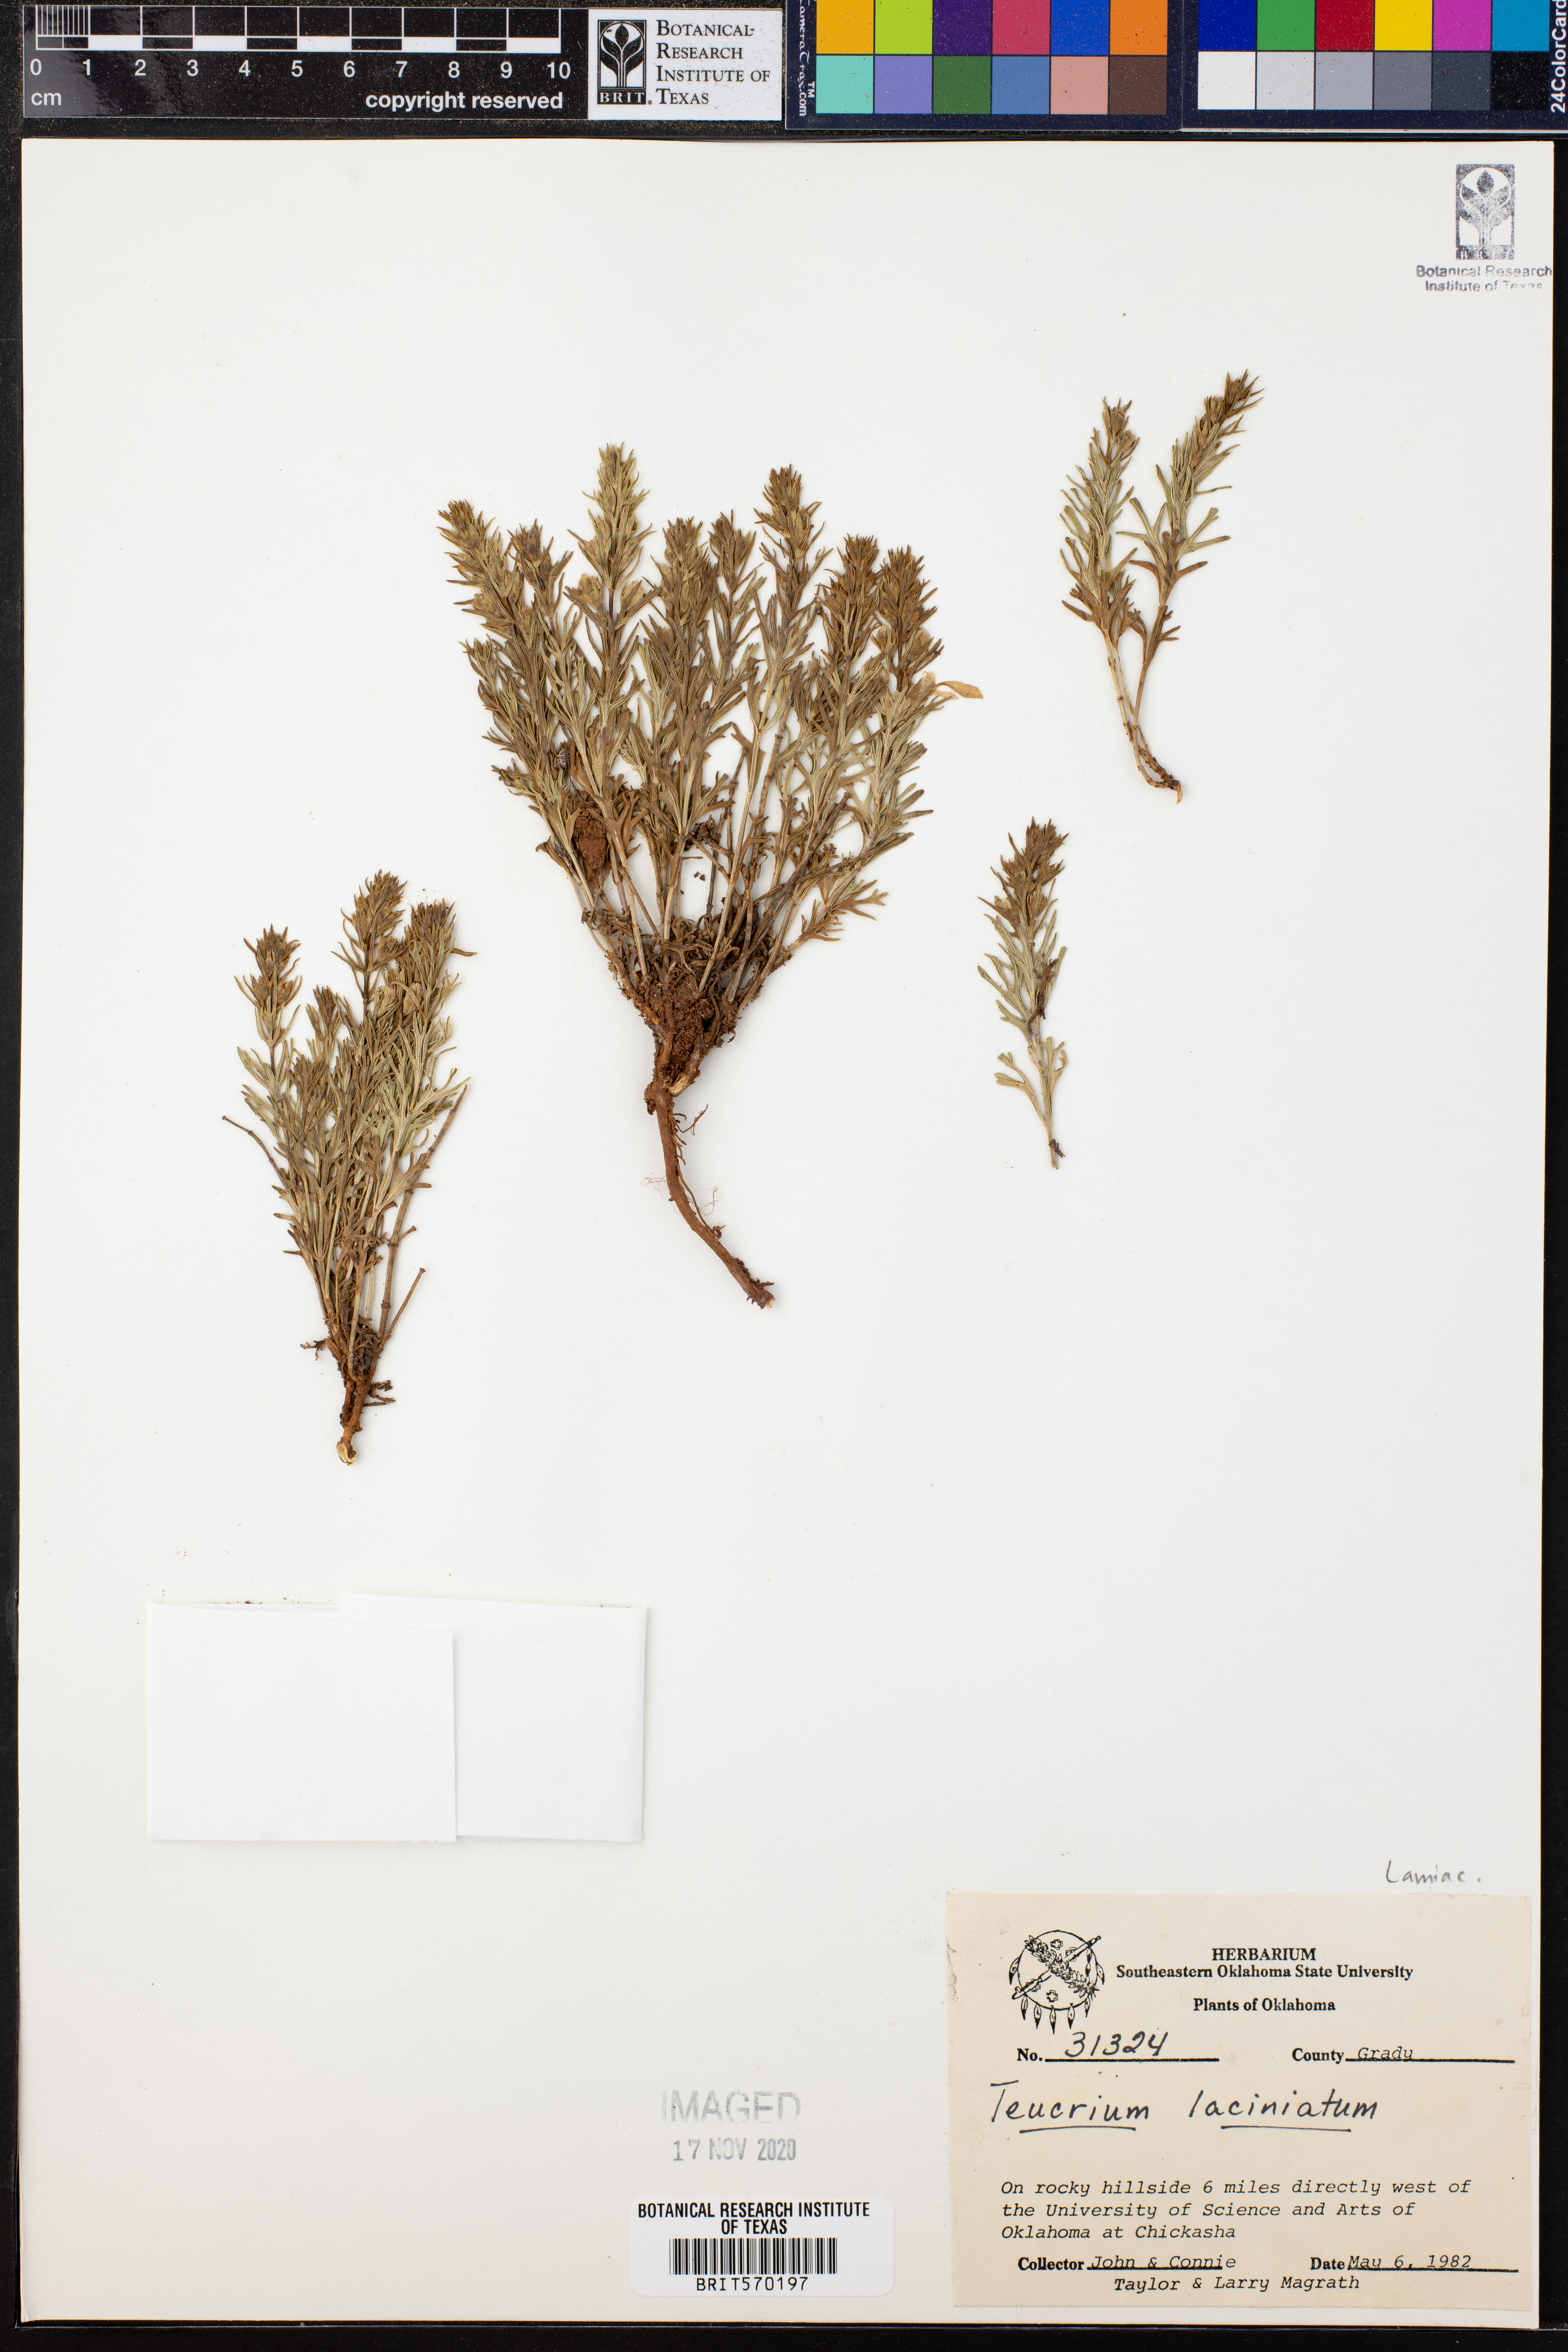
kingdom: Plantae
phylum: Tracheophyta
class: Magnoliopsida
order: Lamiales
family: Lamiaceae
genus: Teucrium
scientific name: Teucrium laciniatum
